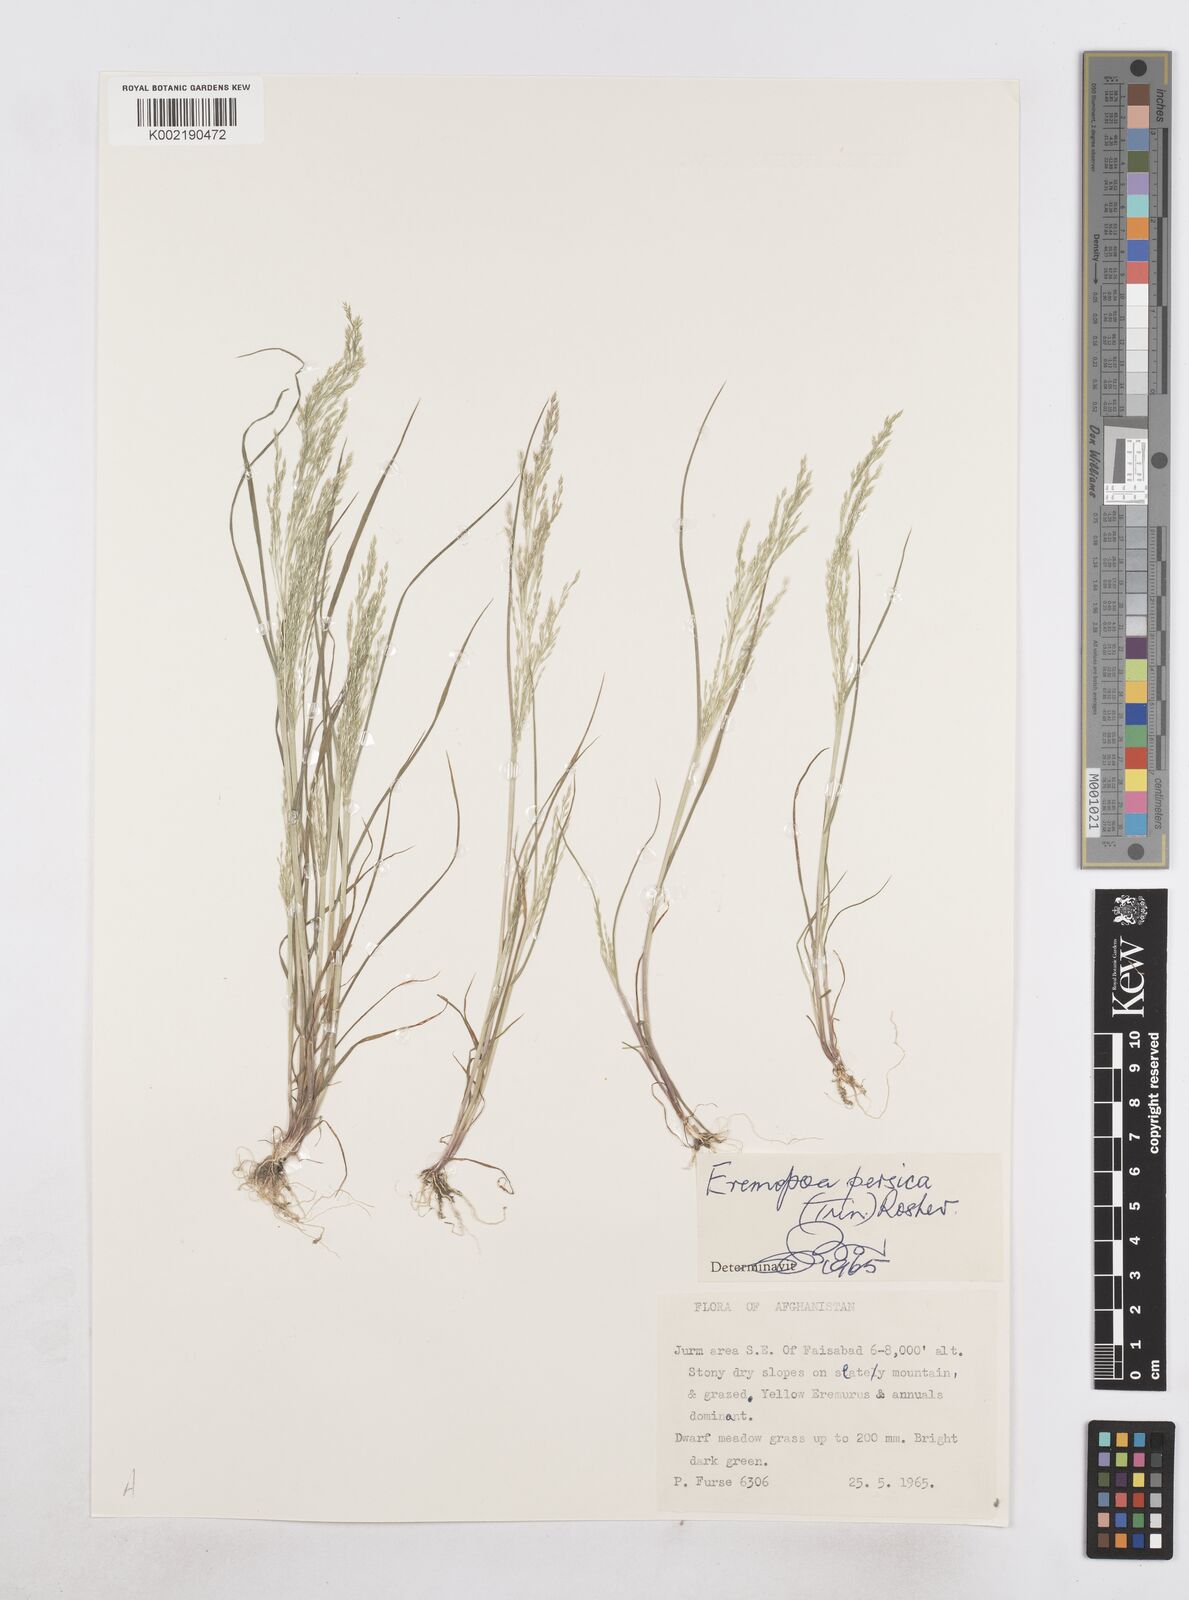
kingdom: Plantae
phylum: Tracheophyta
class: Liliopsida
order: Poales
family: Poaceae
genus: Poa
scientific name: Poa diaphora
